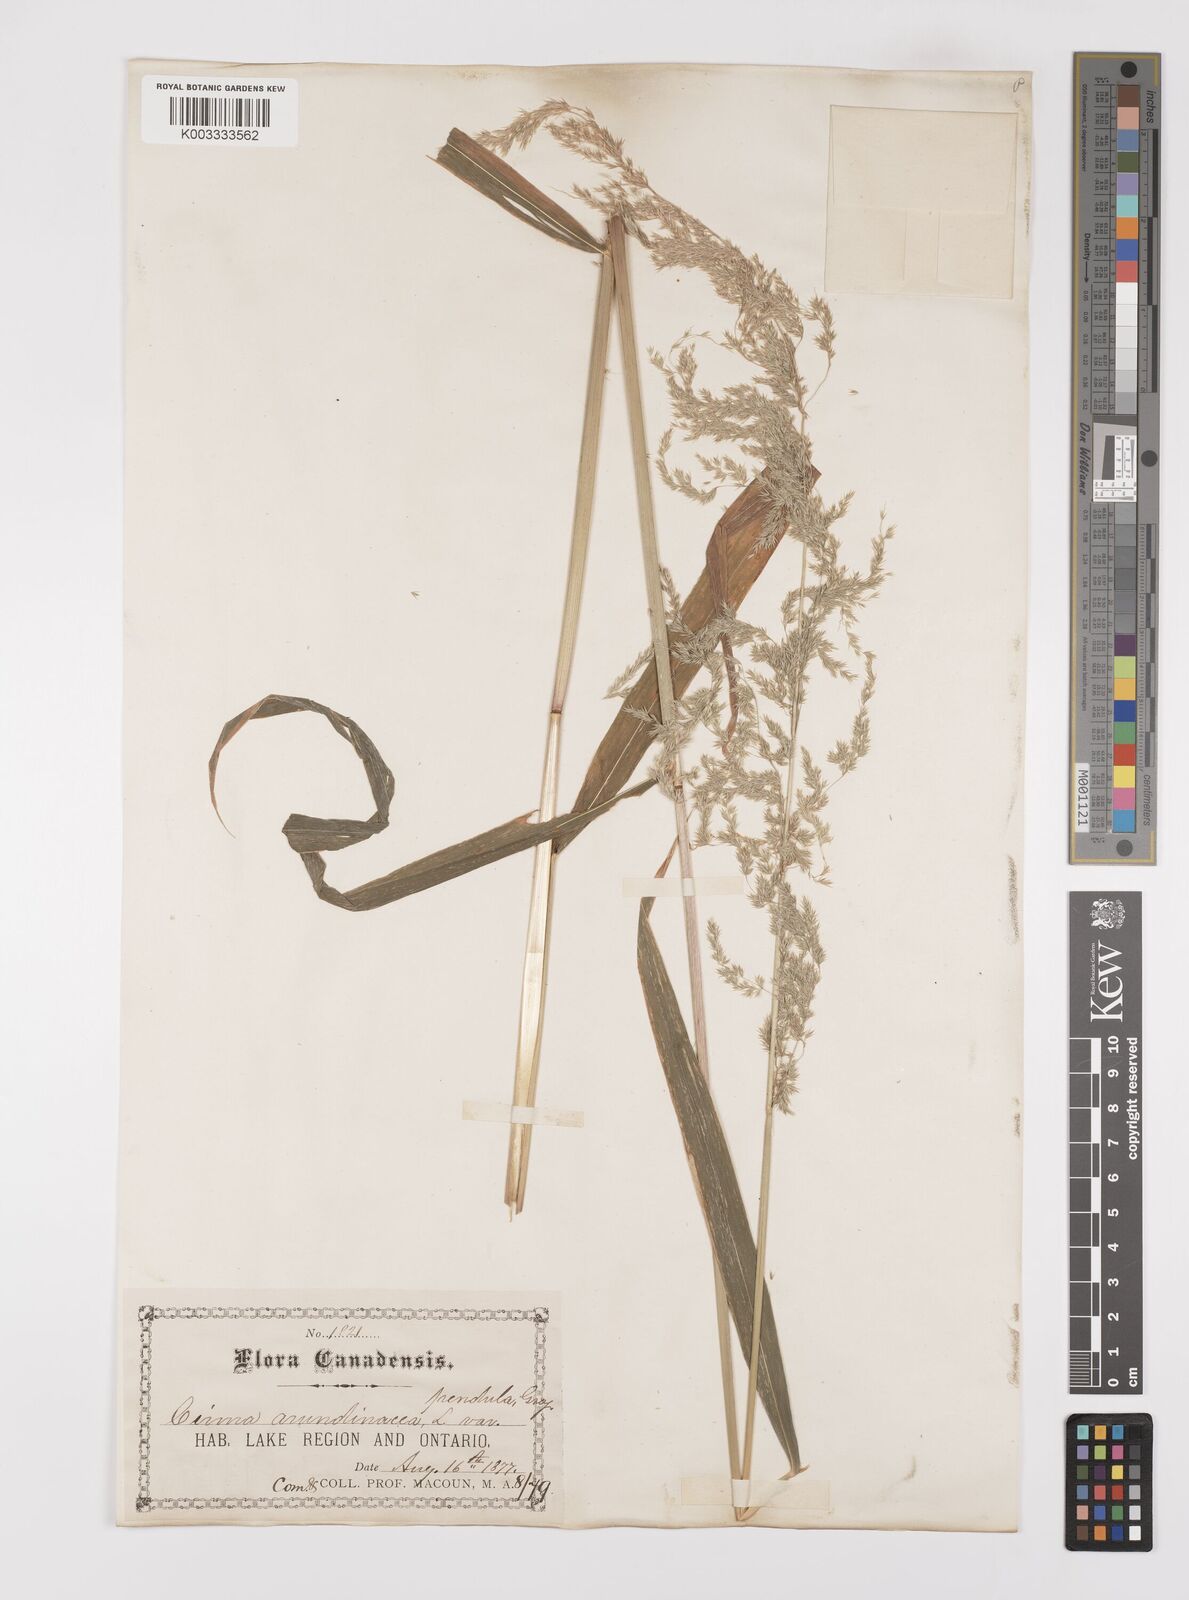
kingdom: Plantae
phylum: Tracheophyta
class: Liliopsida
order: Poales
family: Poaceae
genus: Cinna
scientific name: Cinna latifolia
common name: Drooping woodreed
